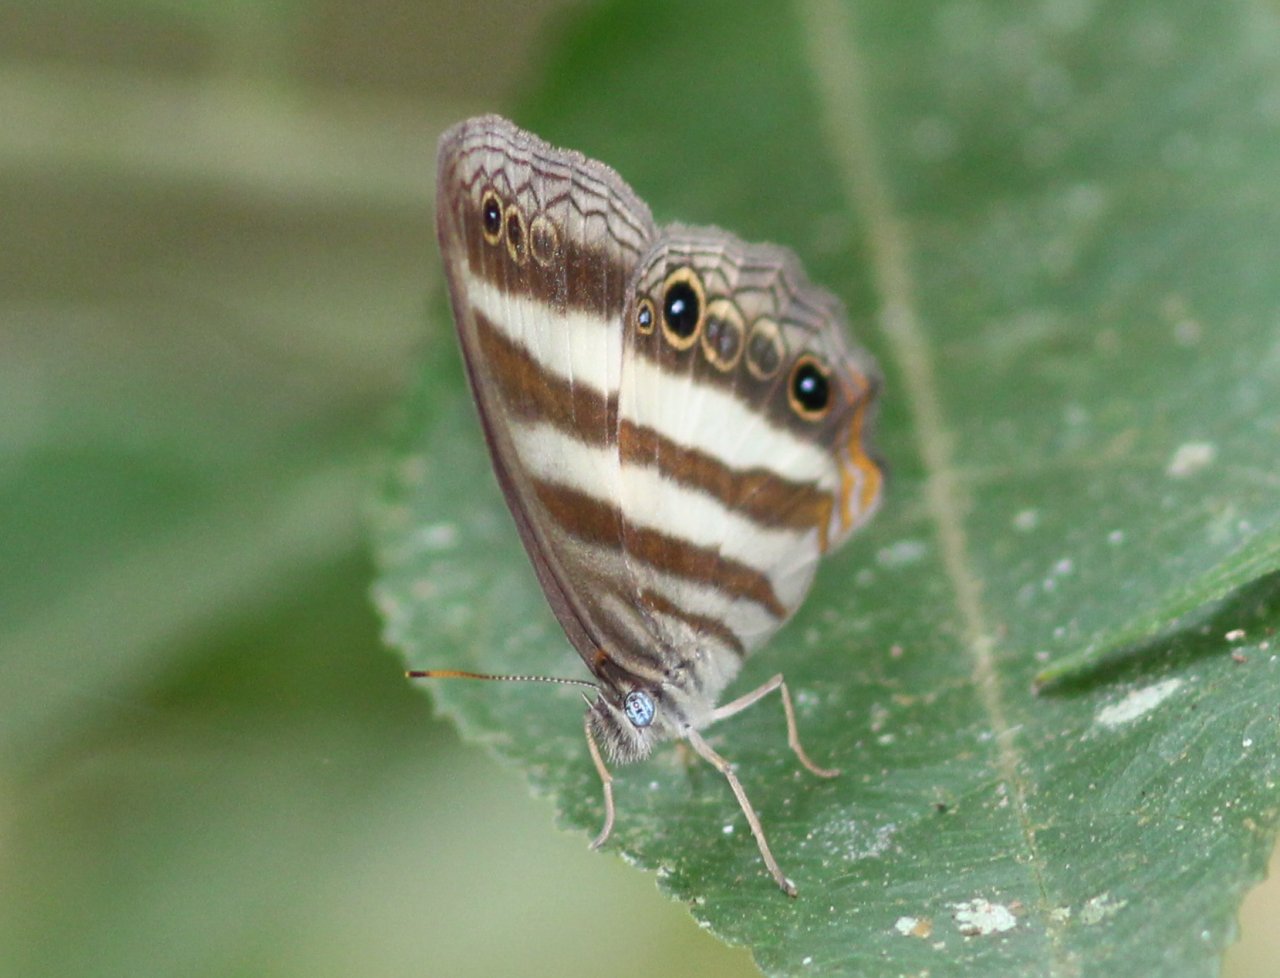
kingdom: Animalia
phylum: Arthropoda
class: Insecta
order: Lepidoptera
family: Nymphalidae
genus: Pareuptychia
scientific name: Pareuptychia hesione
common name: White Satyr
